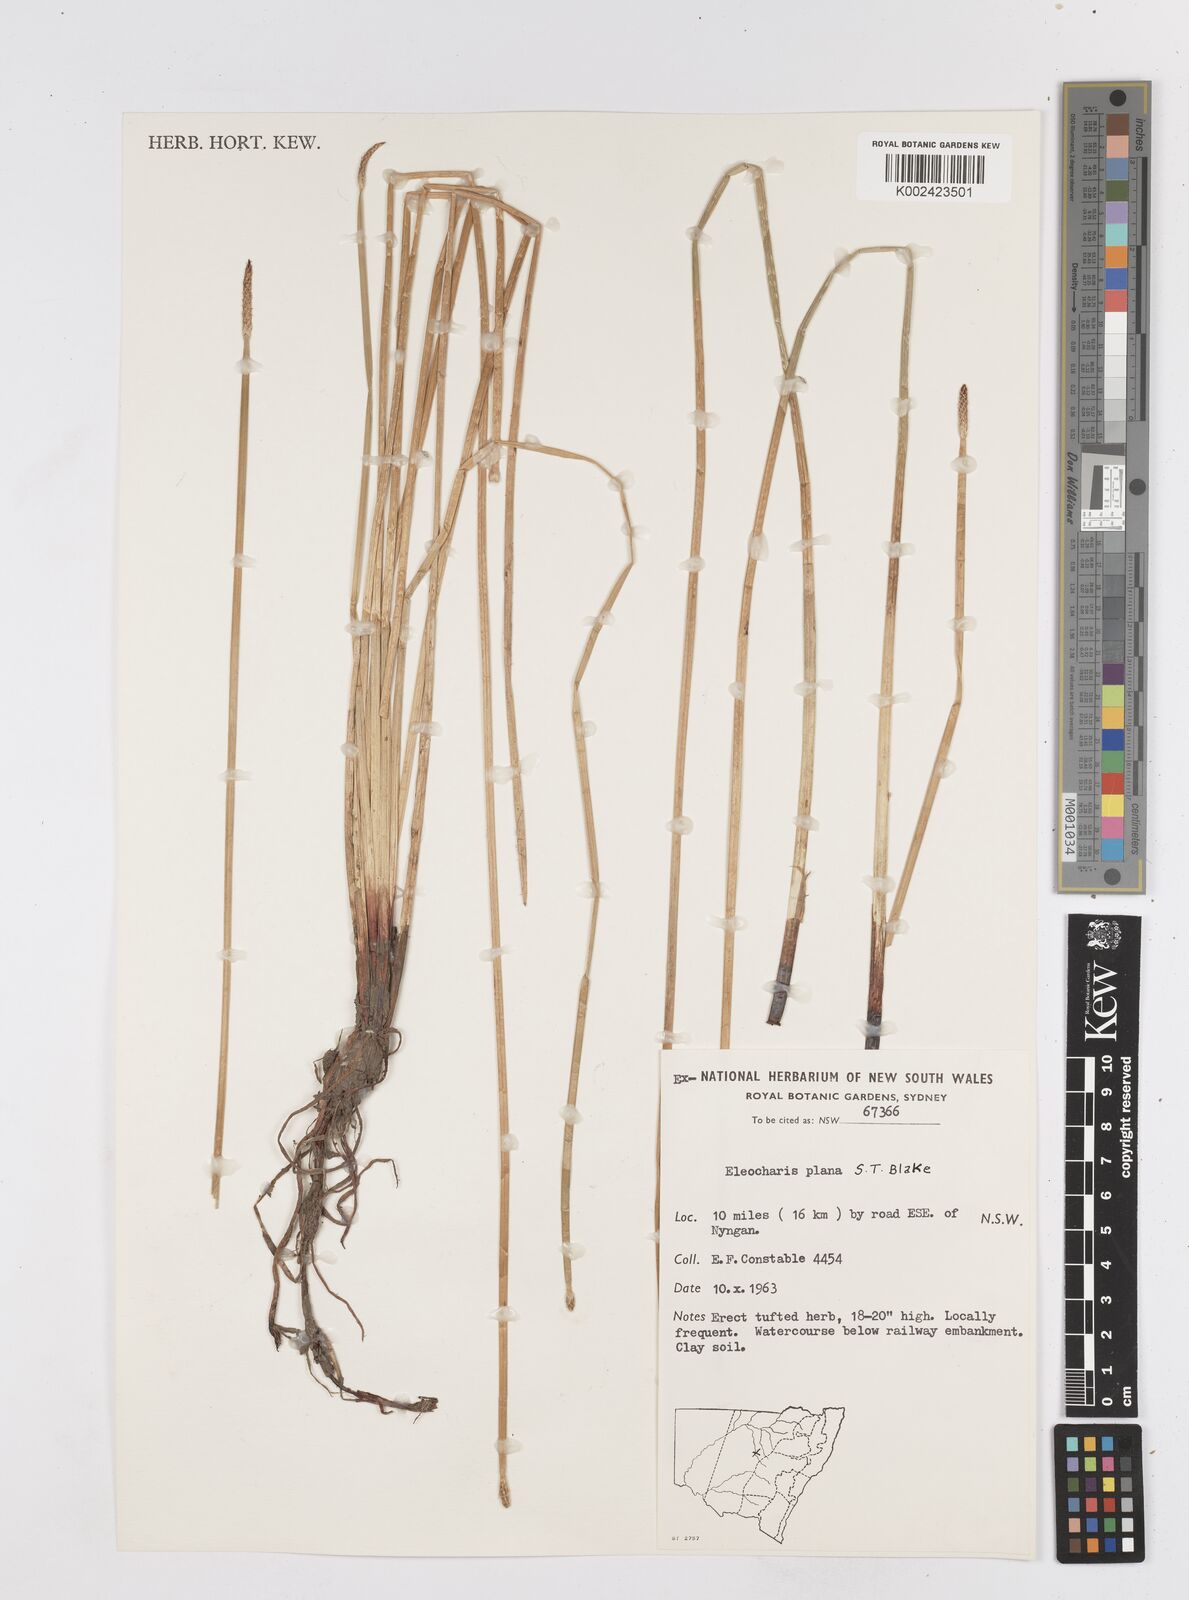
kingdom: Plantae
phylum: Tracheophyta
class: Liliopsida
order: Poales
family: Cyperaceae
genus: Eleocharis
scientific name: Eleocharis plana
